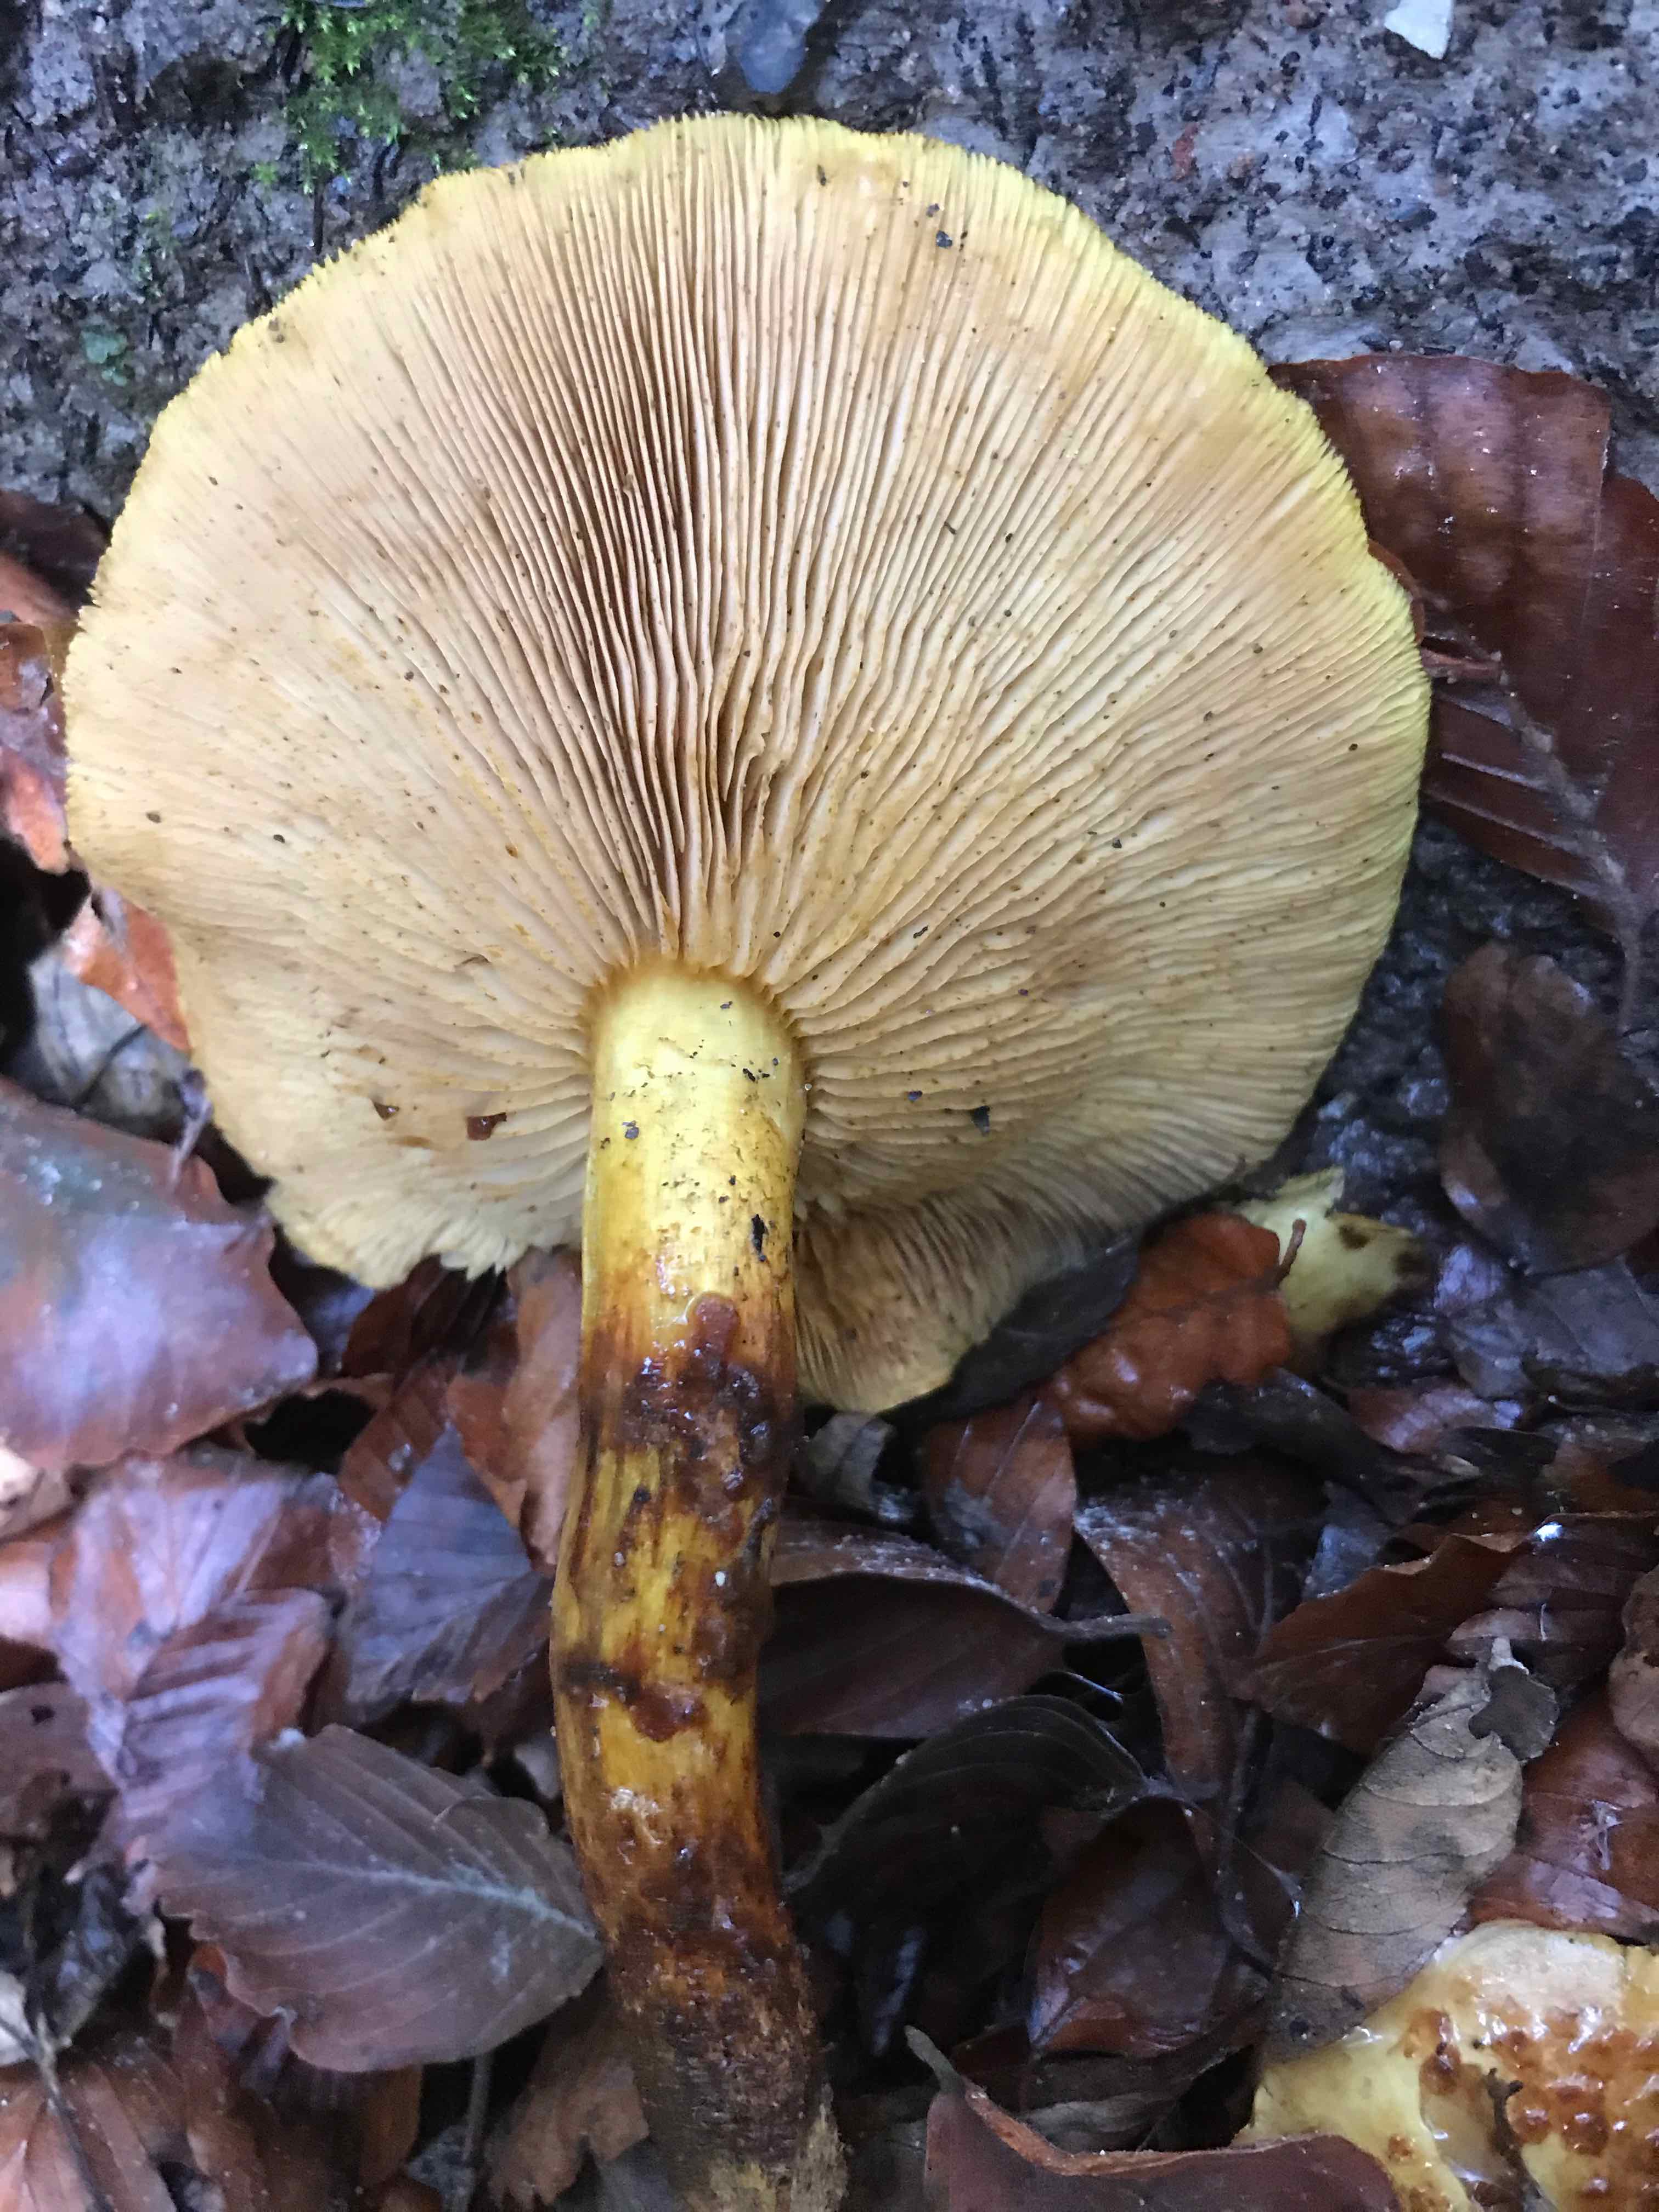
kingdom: Fungi
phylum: Basidiomycota
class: Agaricomycetes
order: Agaricales
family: Strophariaceae
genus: Pholiota
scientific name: Pholiota jahnii
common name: slimet skælhat
